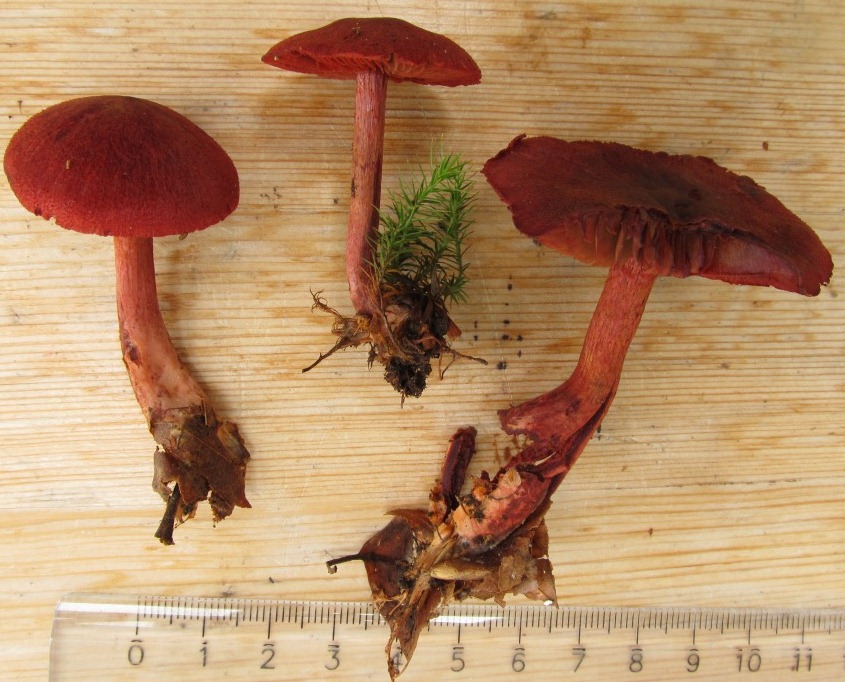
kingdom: Fungi
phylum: Basidiomycota
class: Agaricomycetes
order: Agaricales
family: Cortinariaceae
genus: Cortinarius
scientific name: Cortinarius sanguineus
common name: Bloodred webcap
